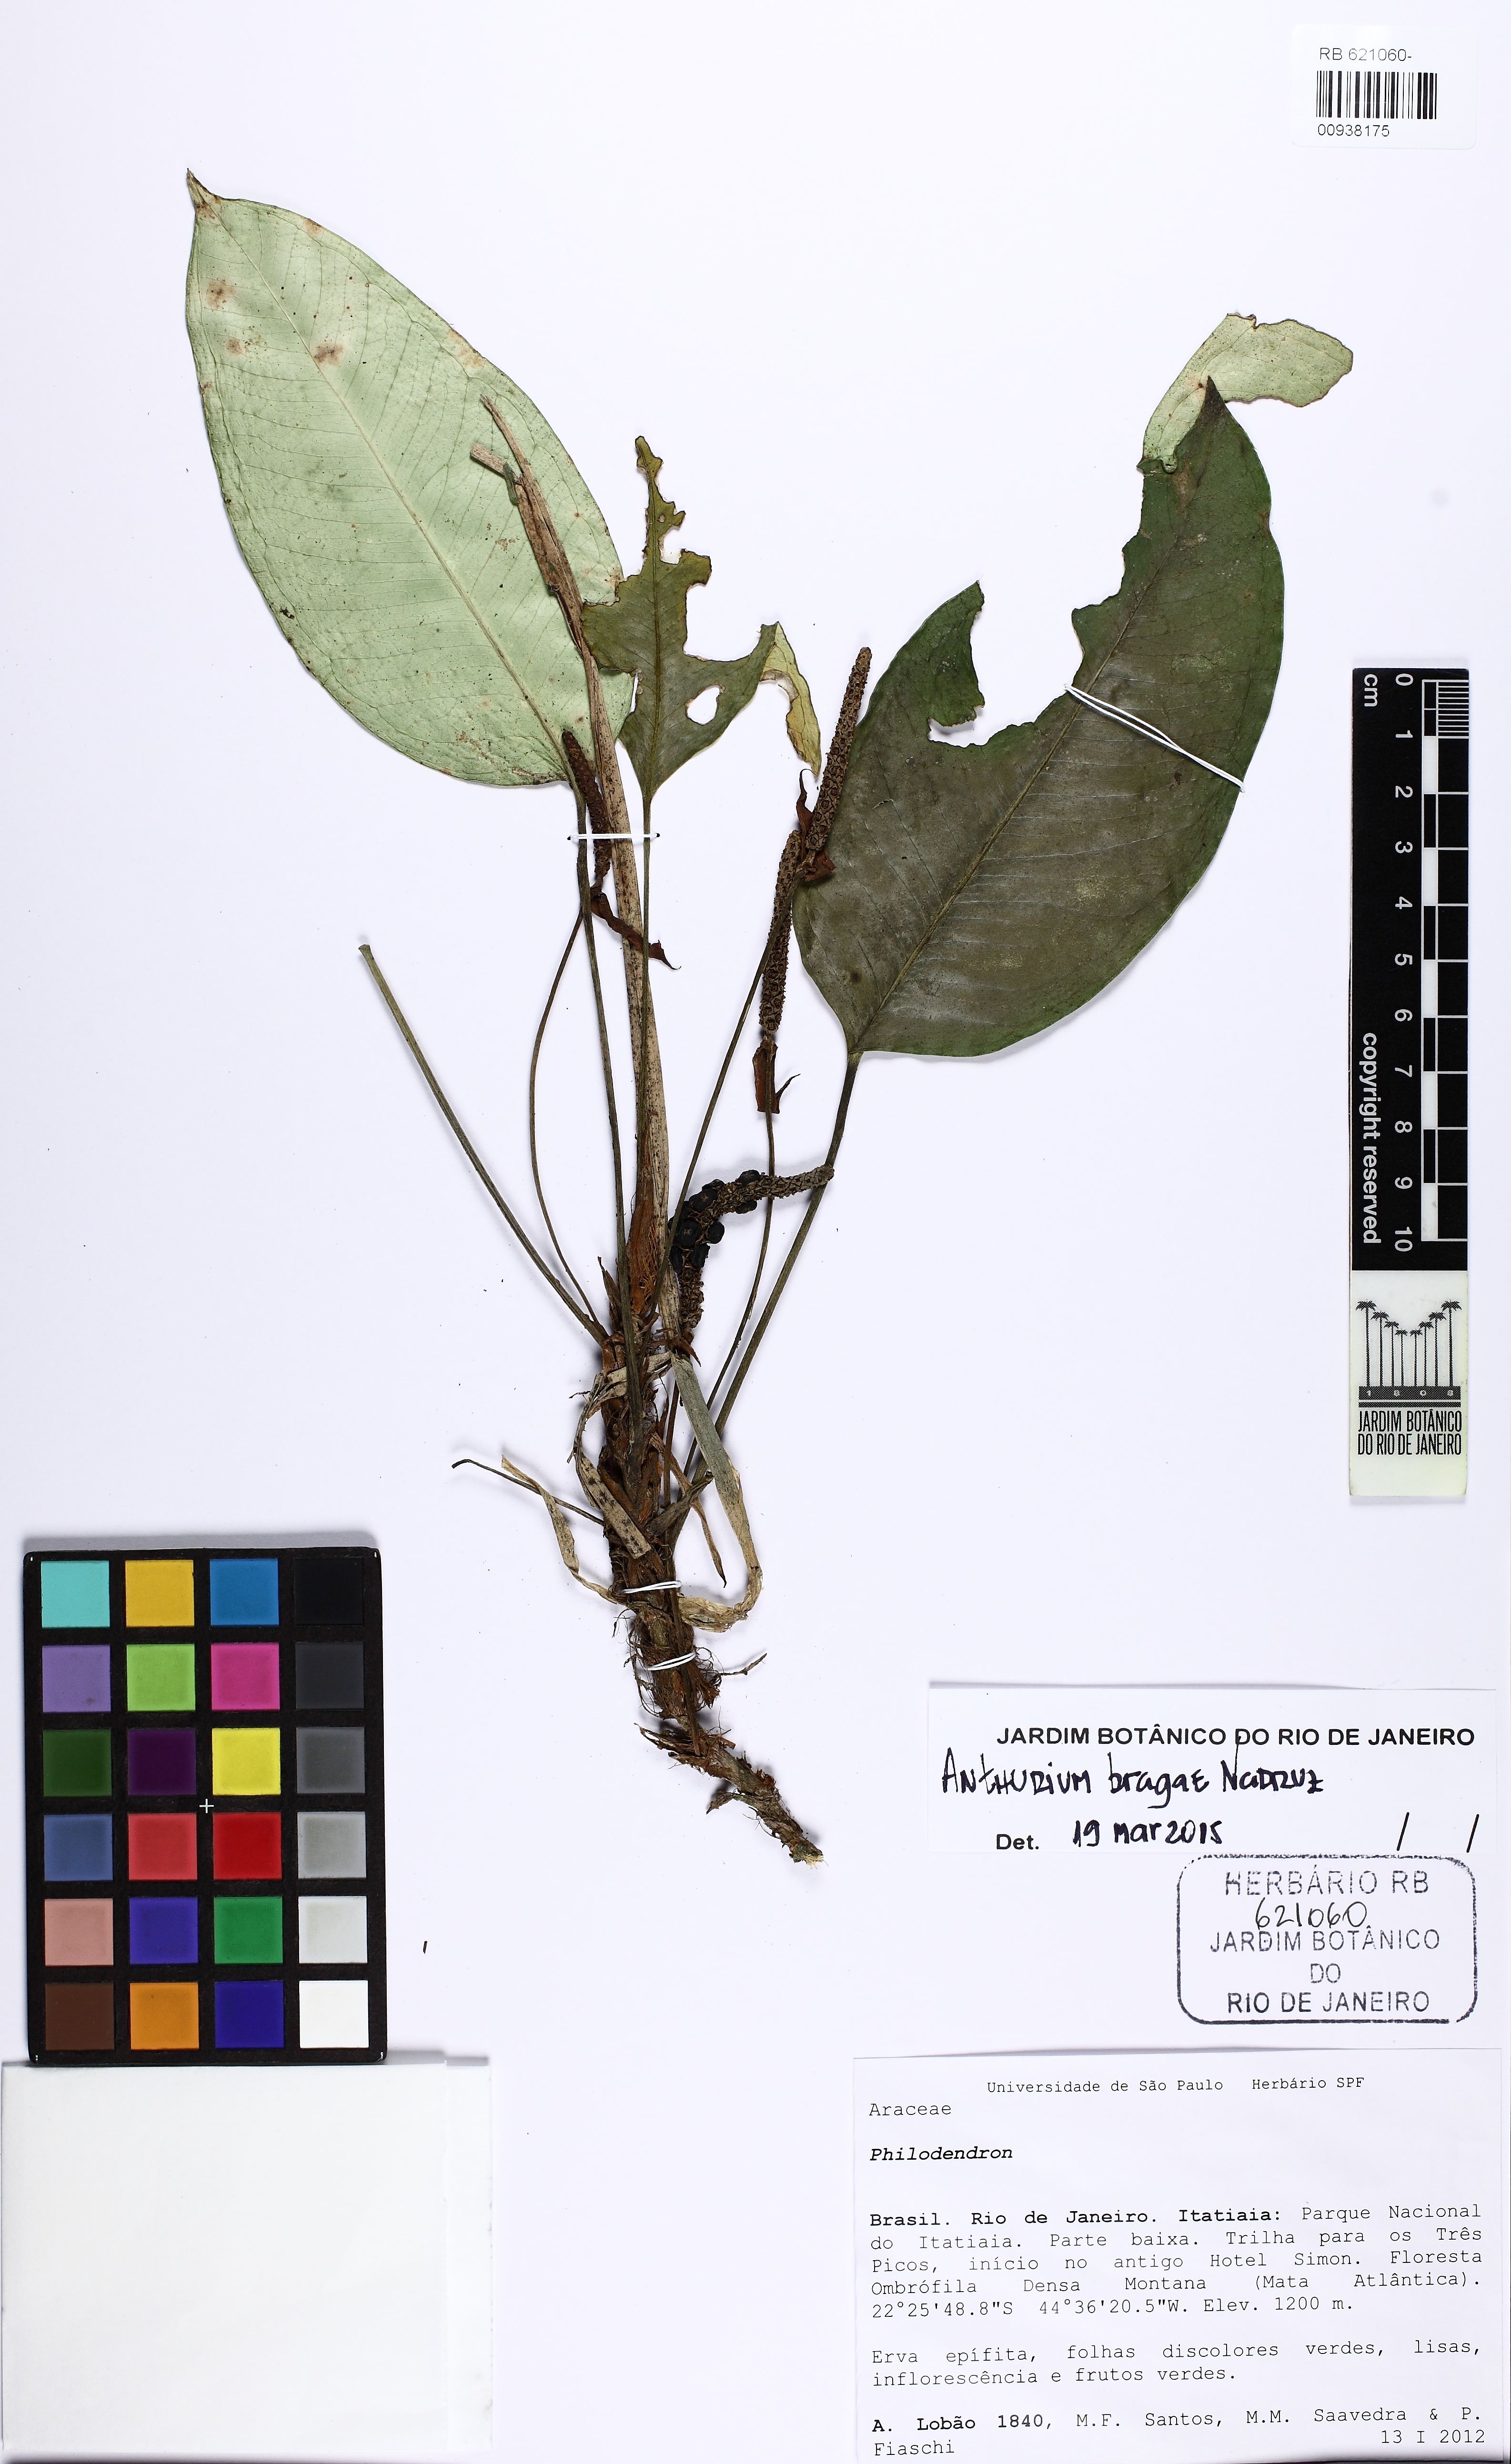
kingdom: Plantae
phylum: Tracheophyta
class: Liliopsida
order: Alismatales
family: Araceae
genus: Anthurium
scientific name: Anthurium bragae
